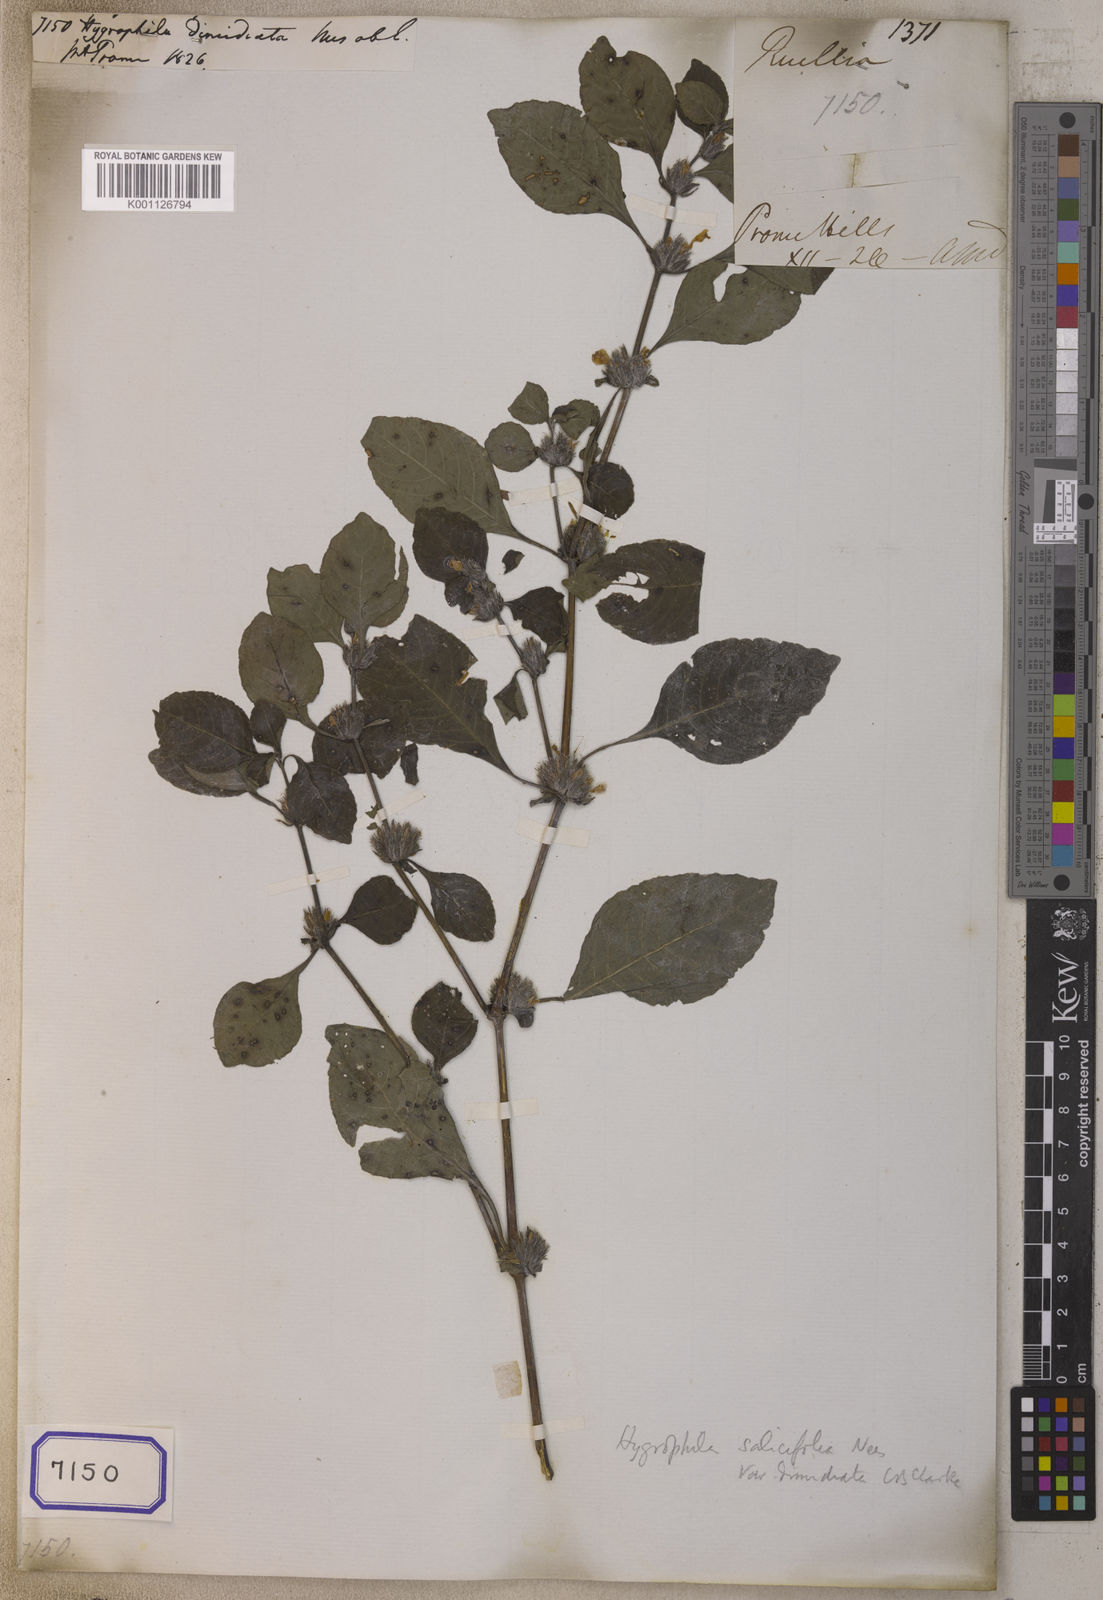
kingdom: Plantae
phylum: Tracheophyta
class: Magnoliopsida
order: Lamiales
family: Acanthaceae
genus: Hygrophila
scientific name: Hygrophila ringens
